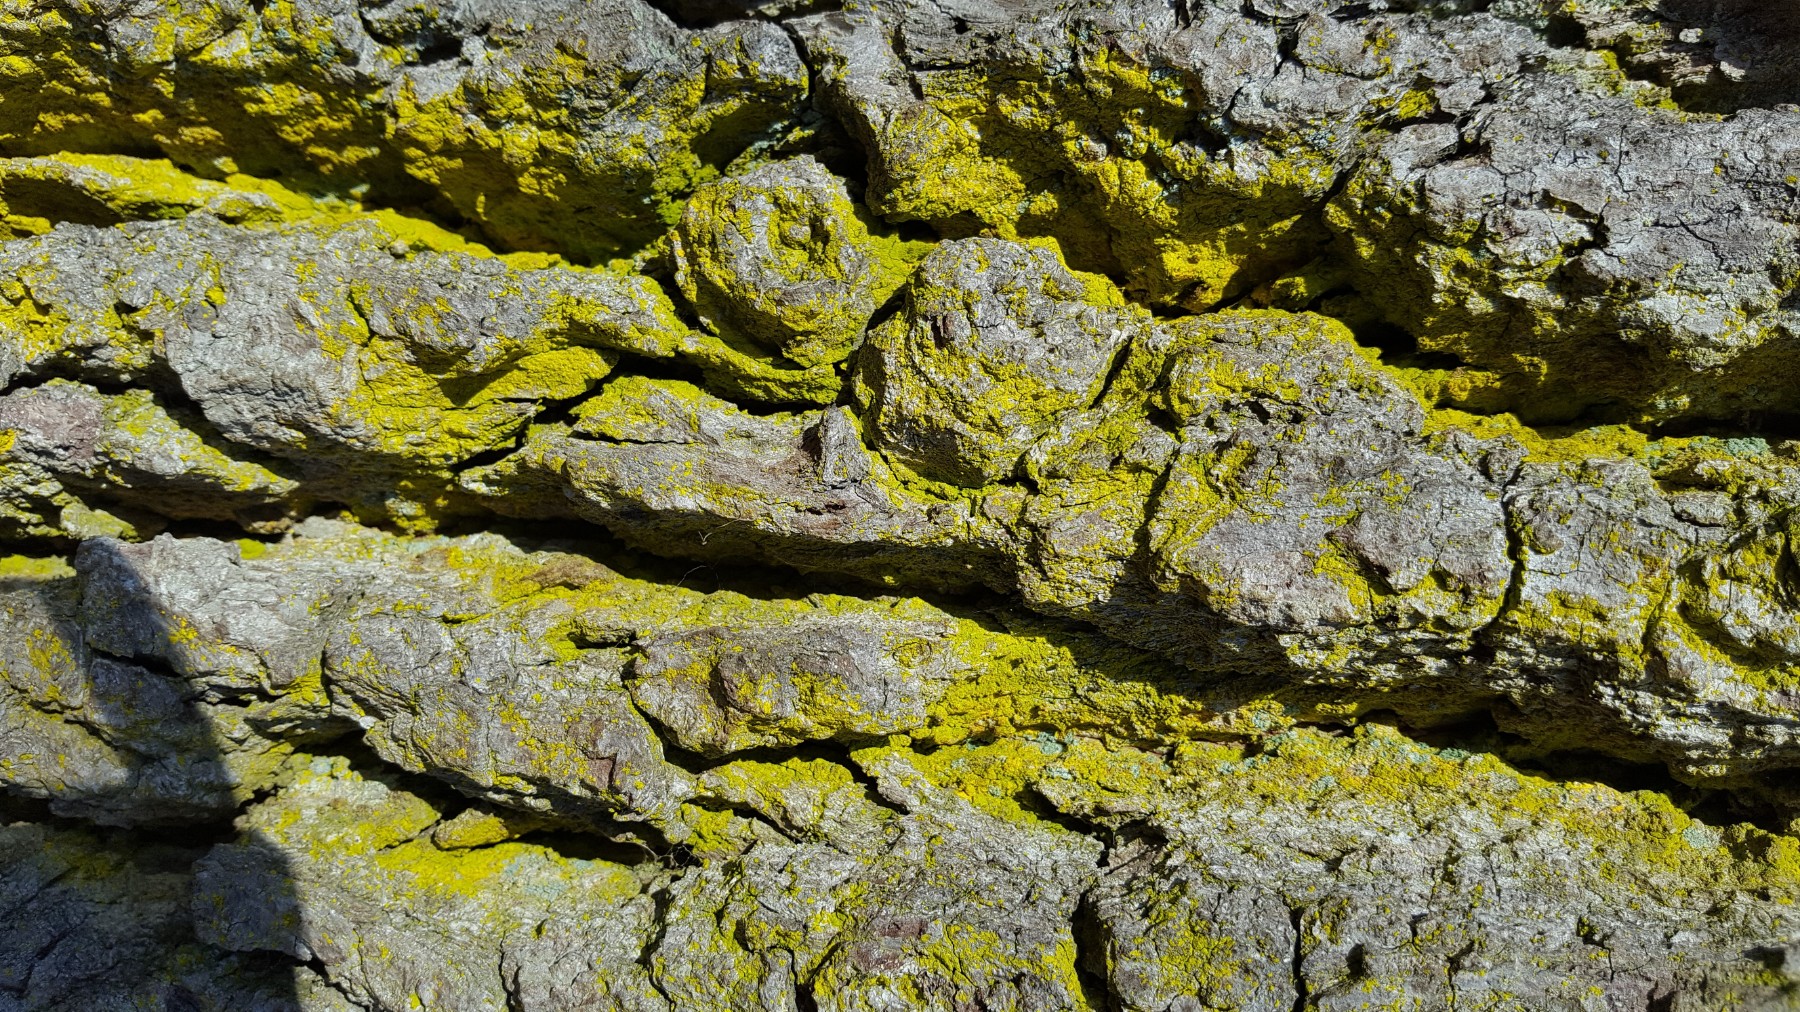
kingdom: Fungi
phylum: Ascomycota
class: Arthoniomycetes
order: Arthoniales
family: Chrysotrichaceae
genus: Chrysothrix
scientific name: Chrysothrix candelaris
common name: gul støvlav
